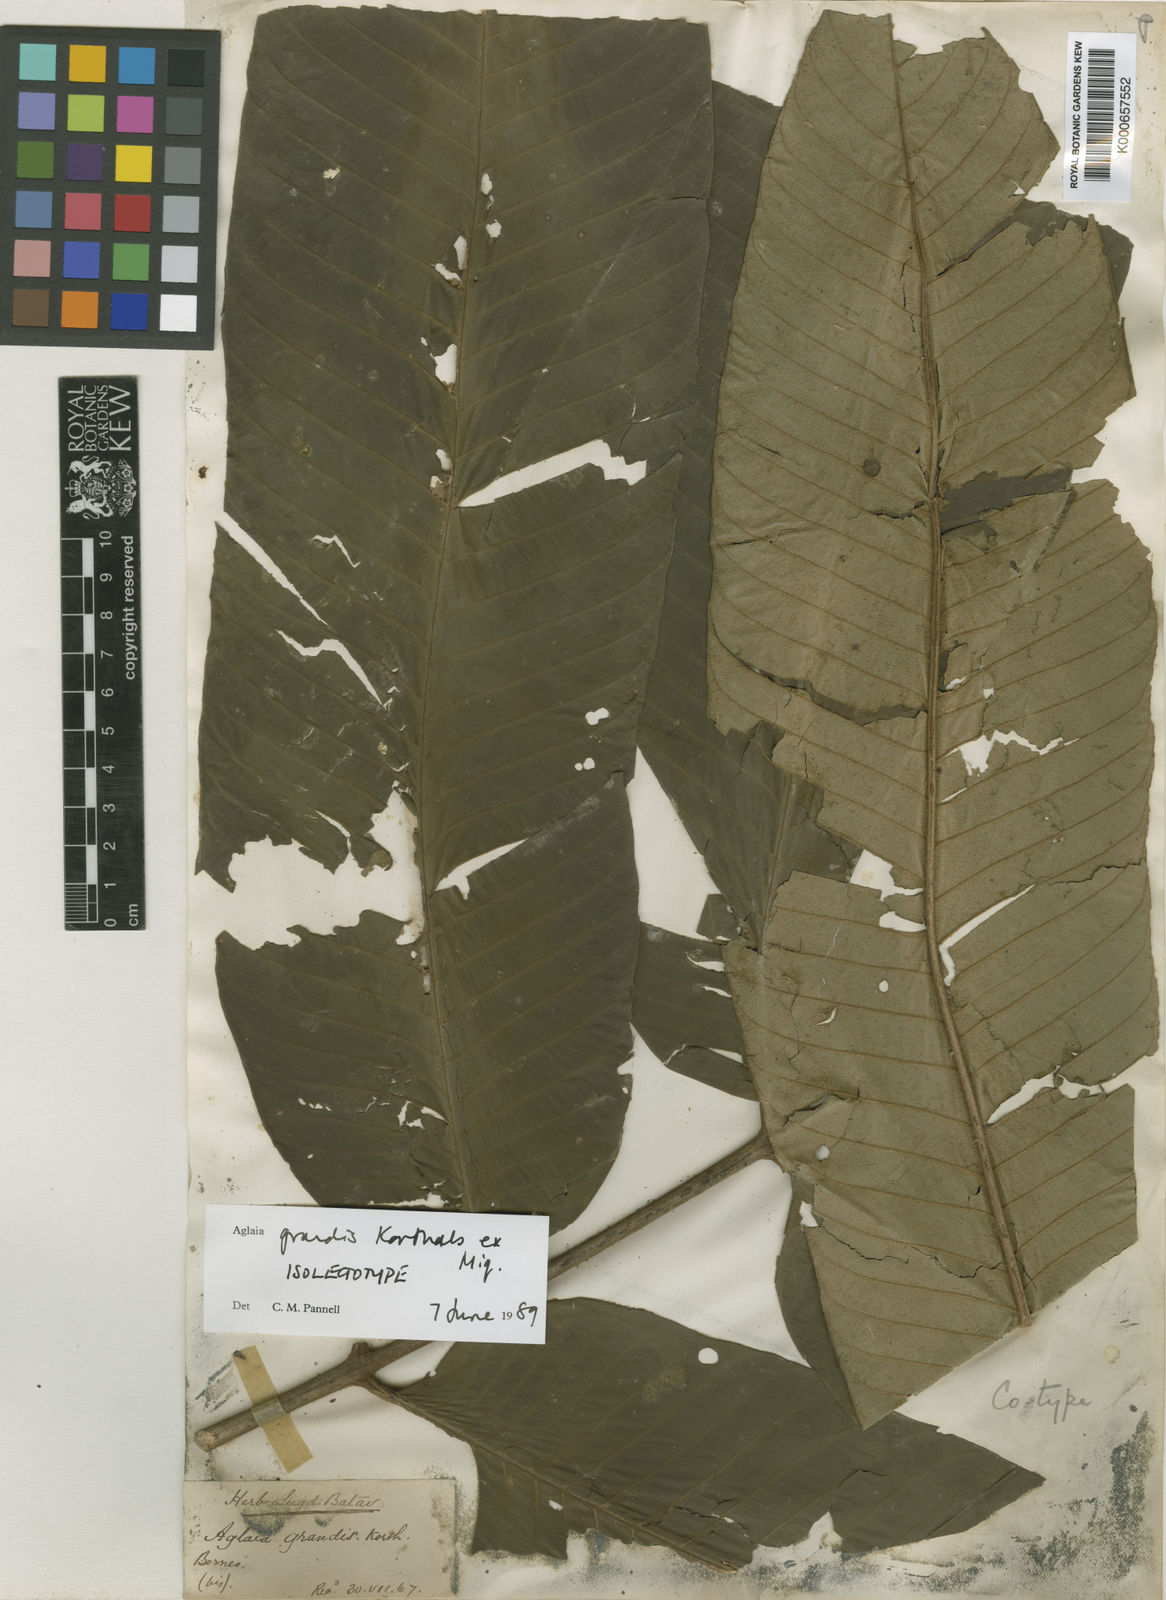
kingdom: Plantae
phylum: Tracheophyta
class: Magnoliopsida
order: Sapindales
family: Meliaceae
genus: Aglaia
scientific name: Aglaia
